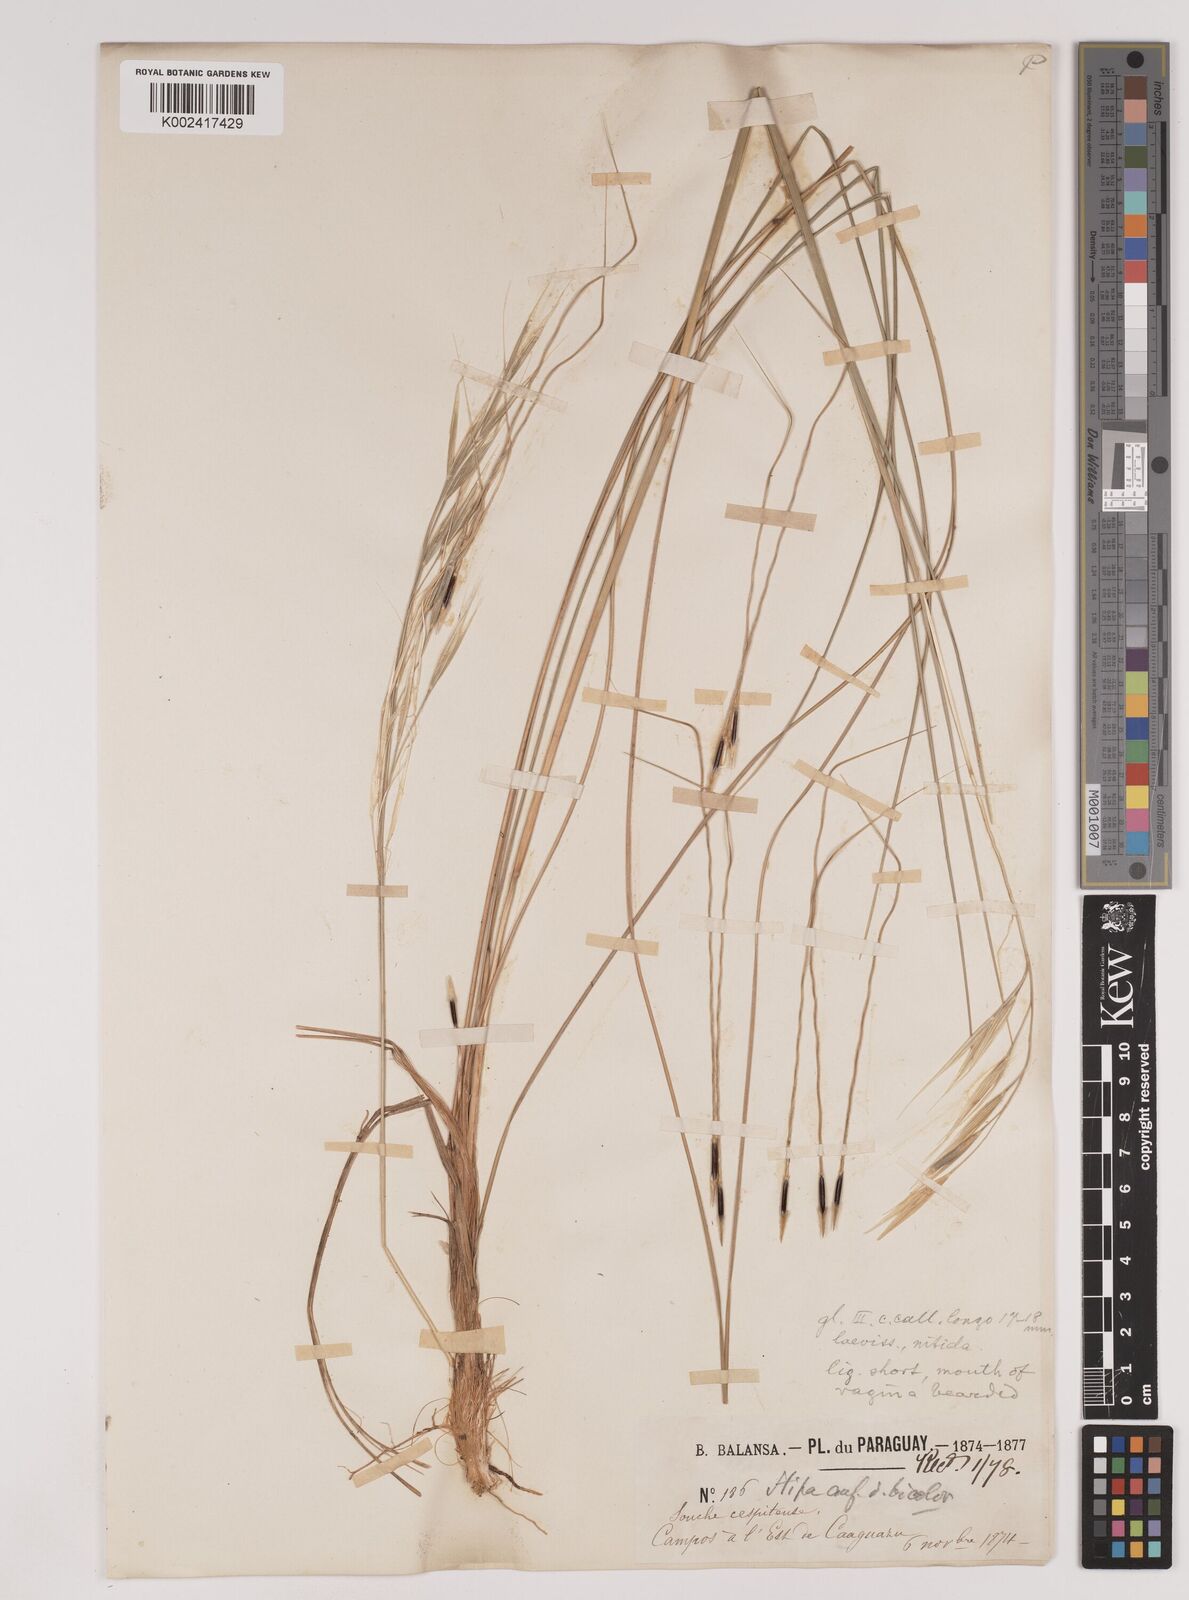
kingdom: Plantae
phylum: Tracheophyta
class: Liliopsida
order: Poales
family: Poaceae
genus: Nassella
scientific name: Nassella melanosperma
